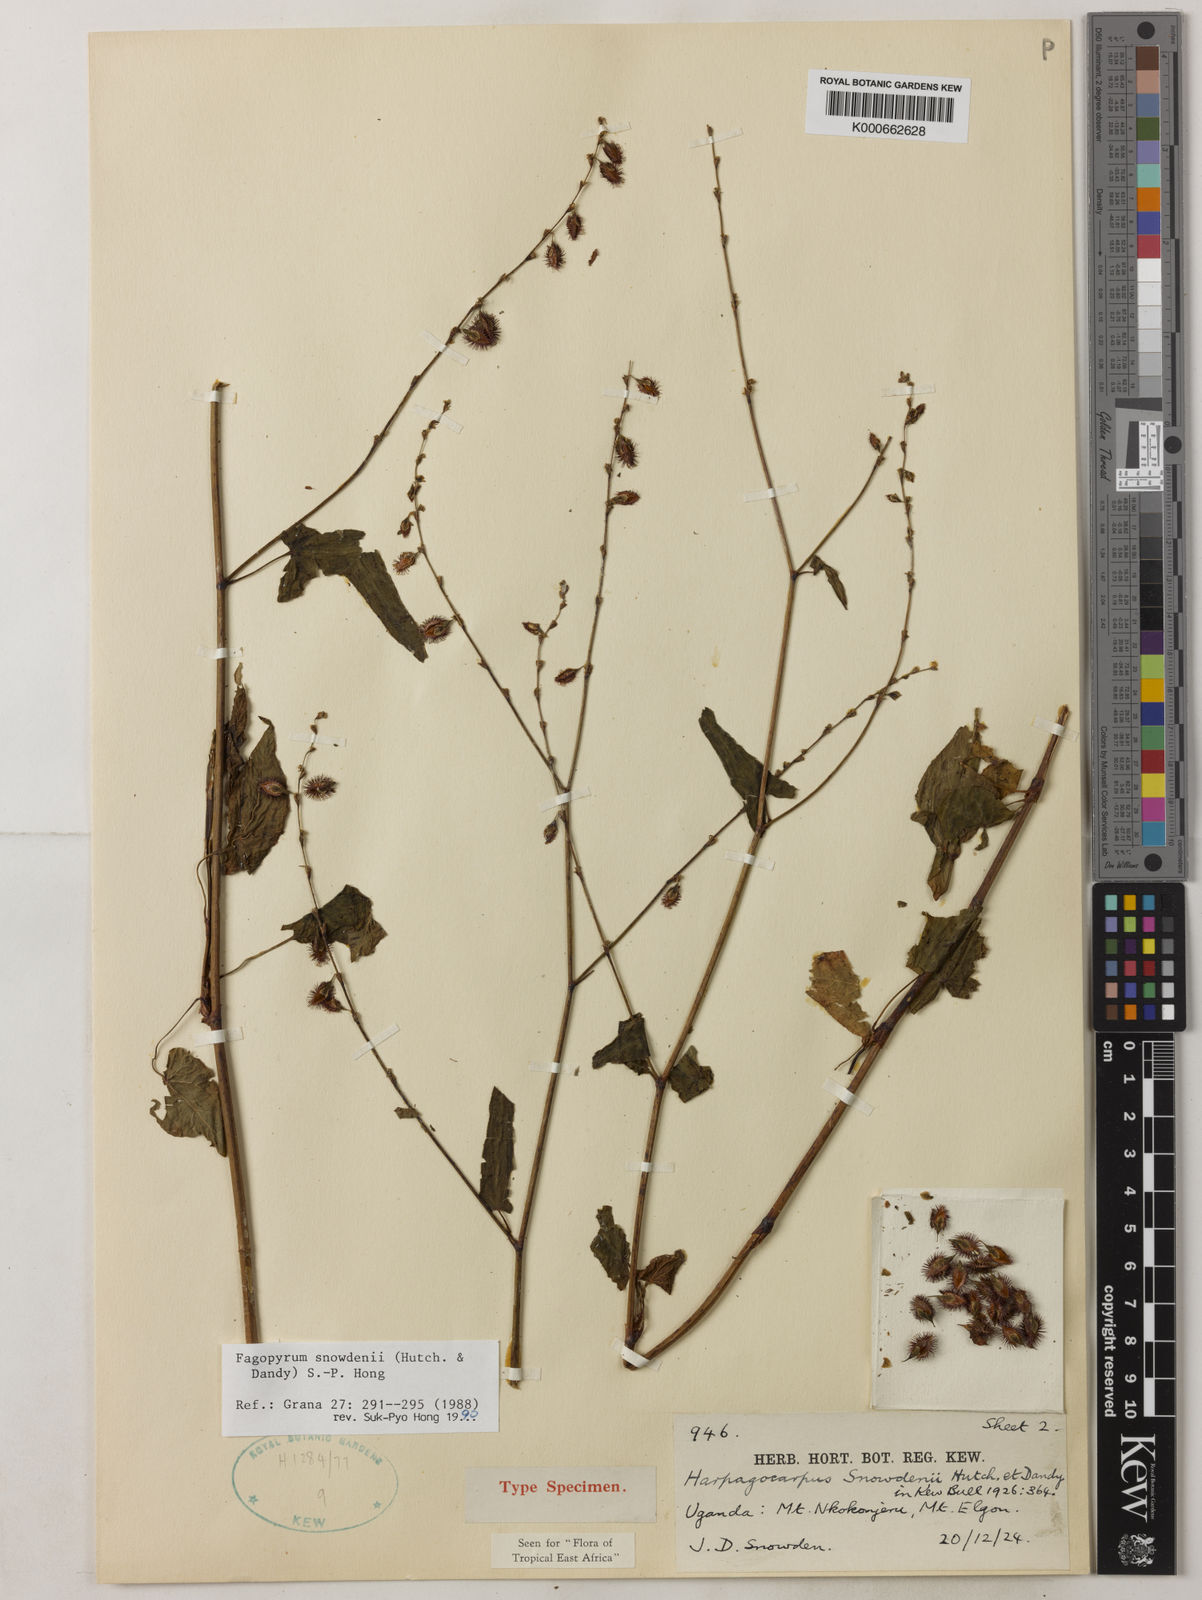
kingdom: Plantae
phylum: Tracheophyta
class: Magnoliopsida
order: Caryophyllales
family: Polygonaceae
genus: Harpagocarpus
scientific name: Harpagocarpus snowdenii
